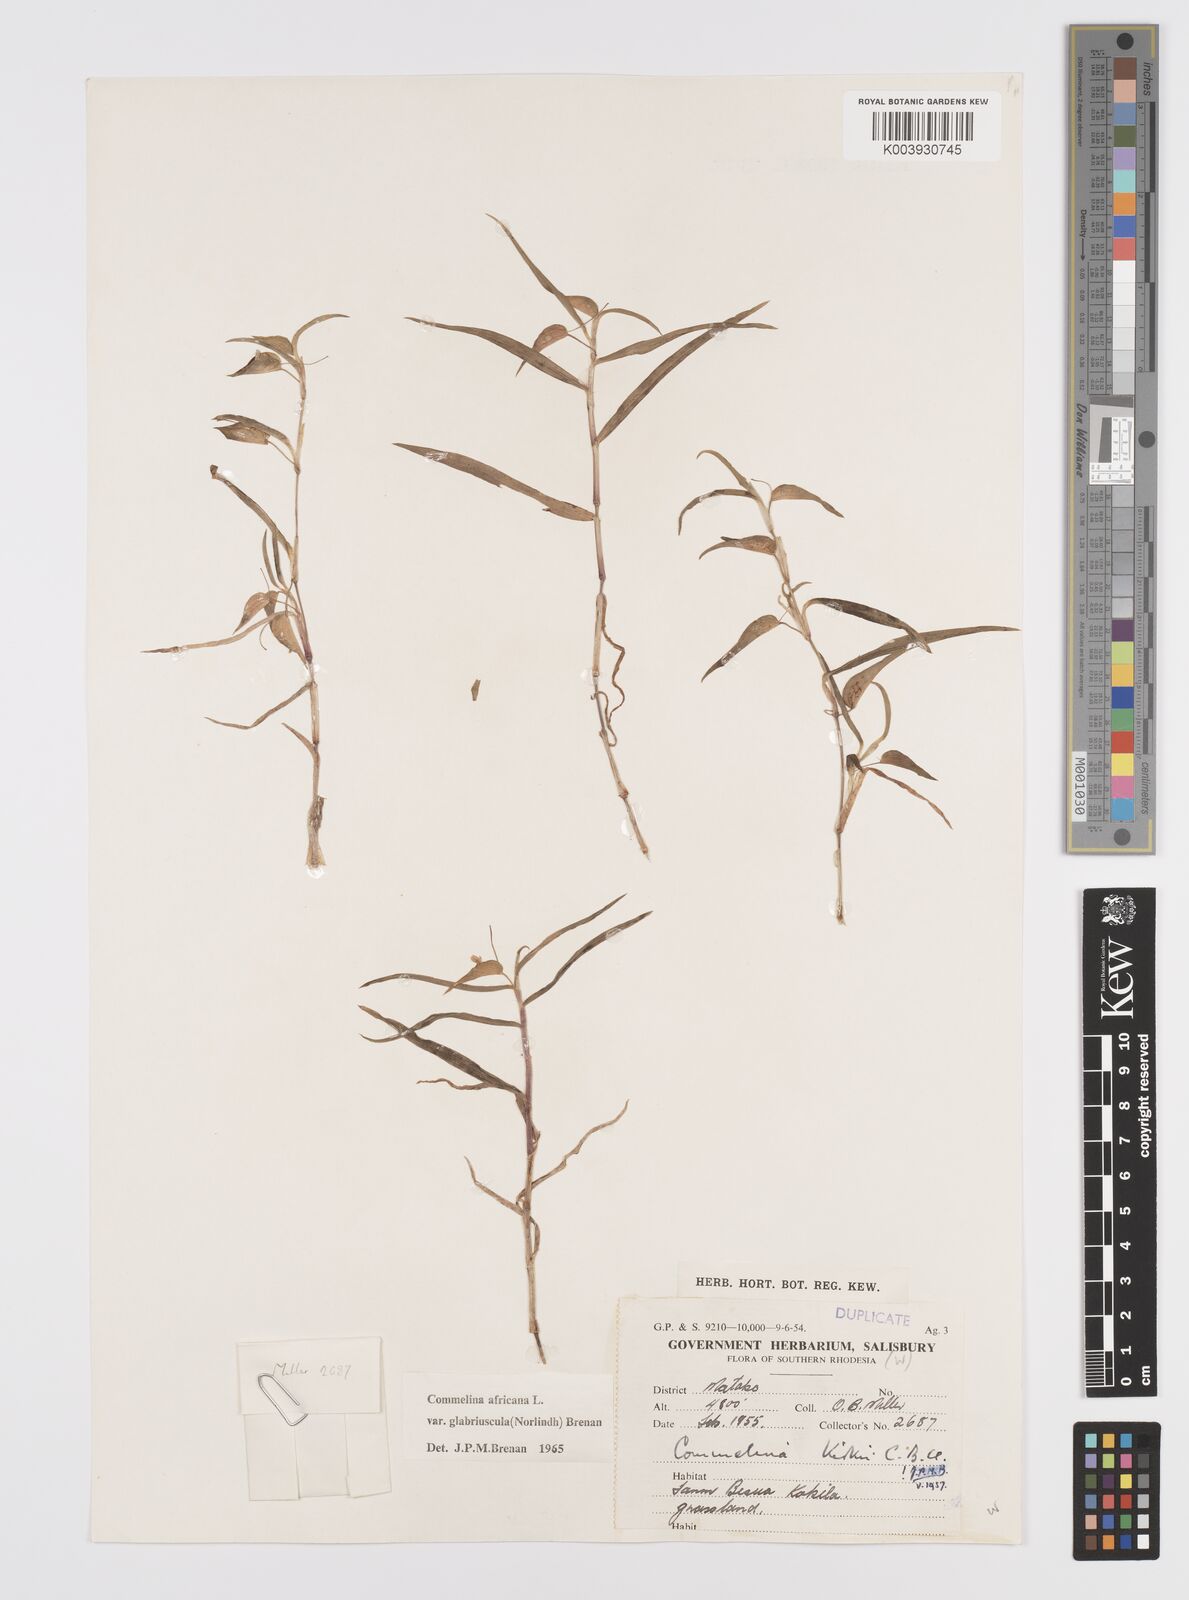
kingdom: Plantae
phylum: Tracheophyta
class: Liliopsida
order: Commelinales
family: Commelinaceae
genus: Commelina
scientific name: Commelina africana
